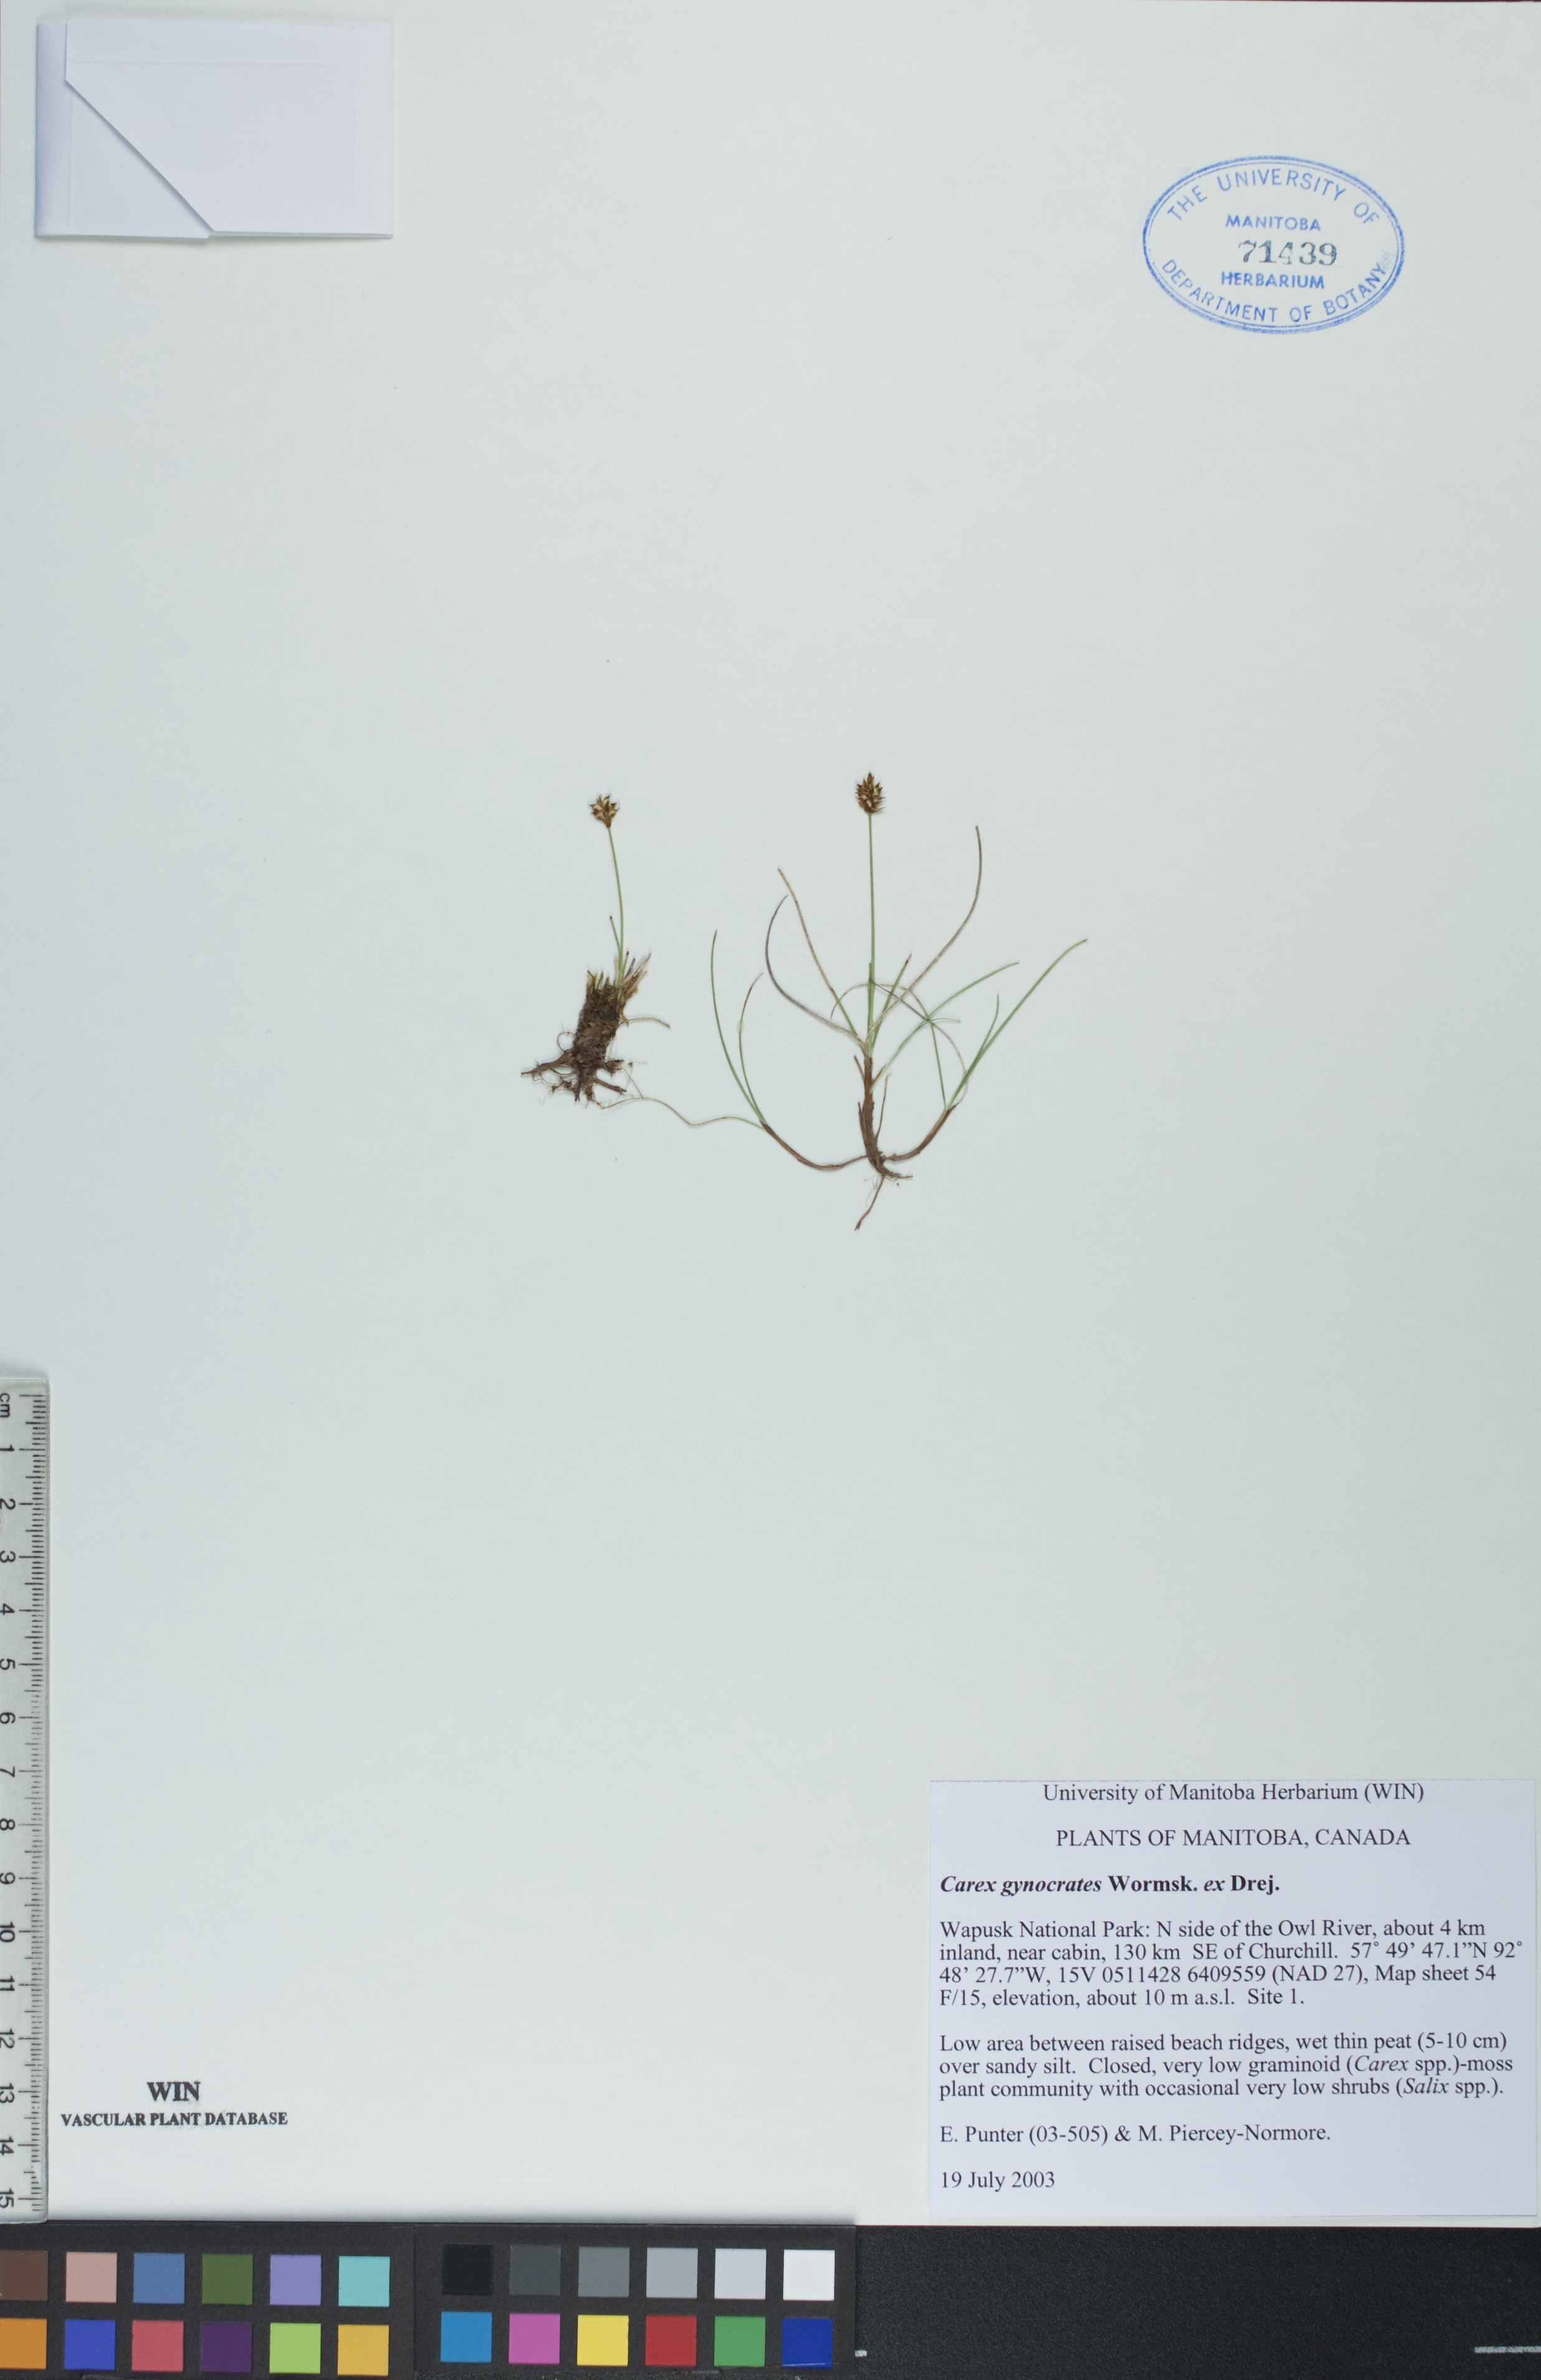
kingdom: Plantae
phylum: Tracheophyta
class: Liliopsida
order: Poales
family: Cyperaceae
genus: Carex
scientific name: Carex nardina
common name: Nard sedge
